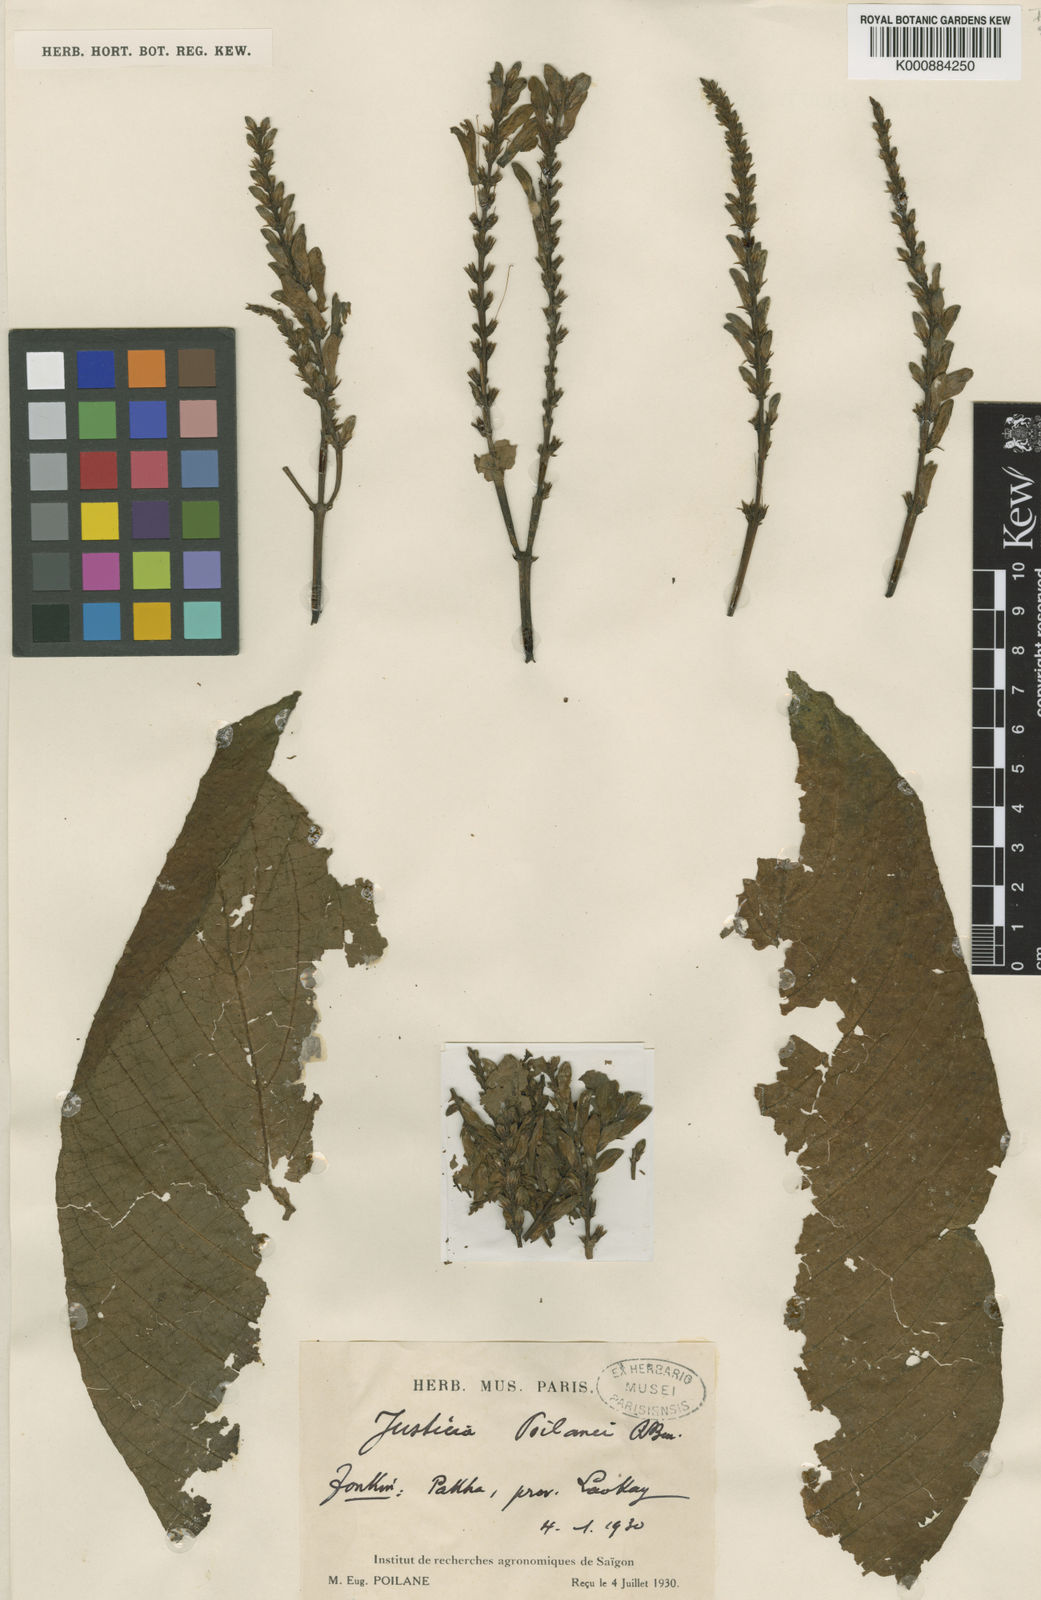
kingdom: Plantae
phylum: Tracheophyta
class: Magnoliopsida
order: Lamiales
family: Acanthaceae
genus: Justicia
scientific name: Justicia poilanei
